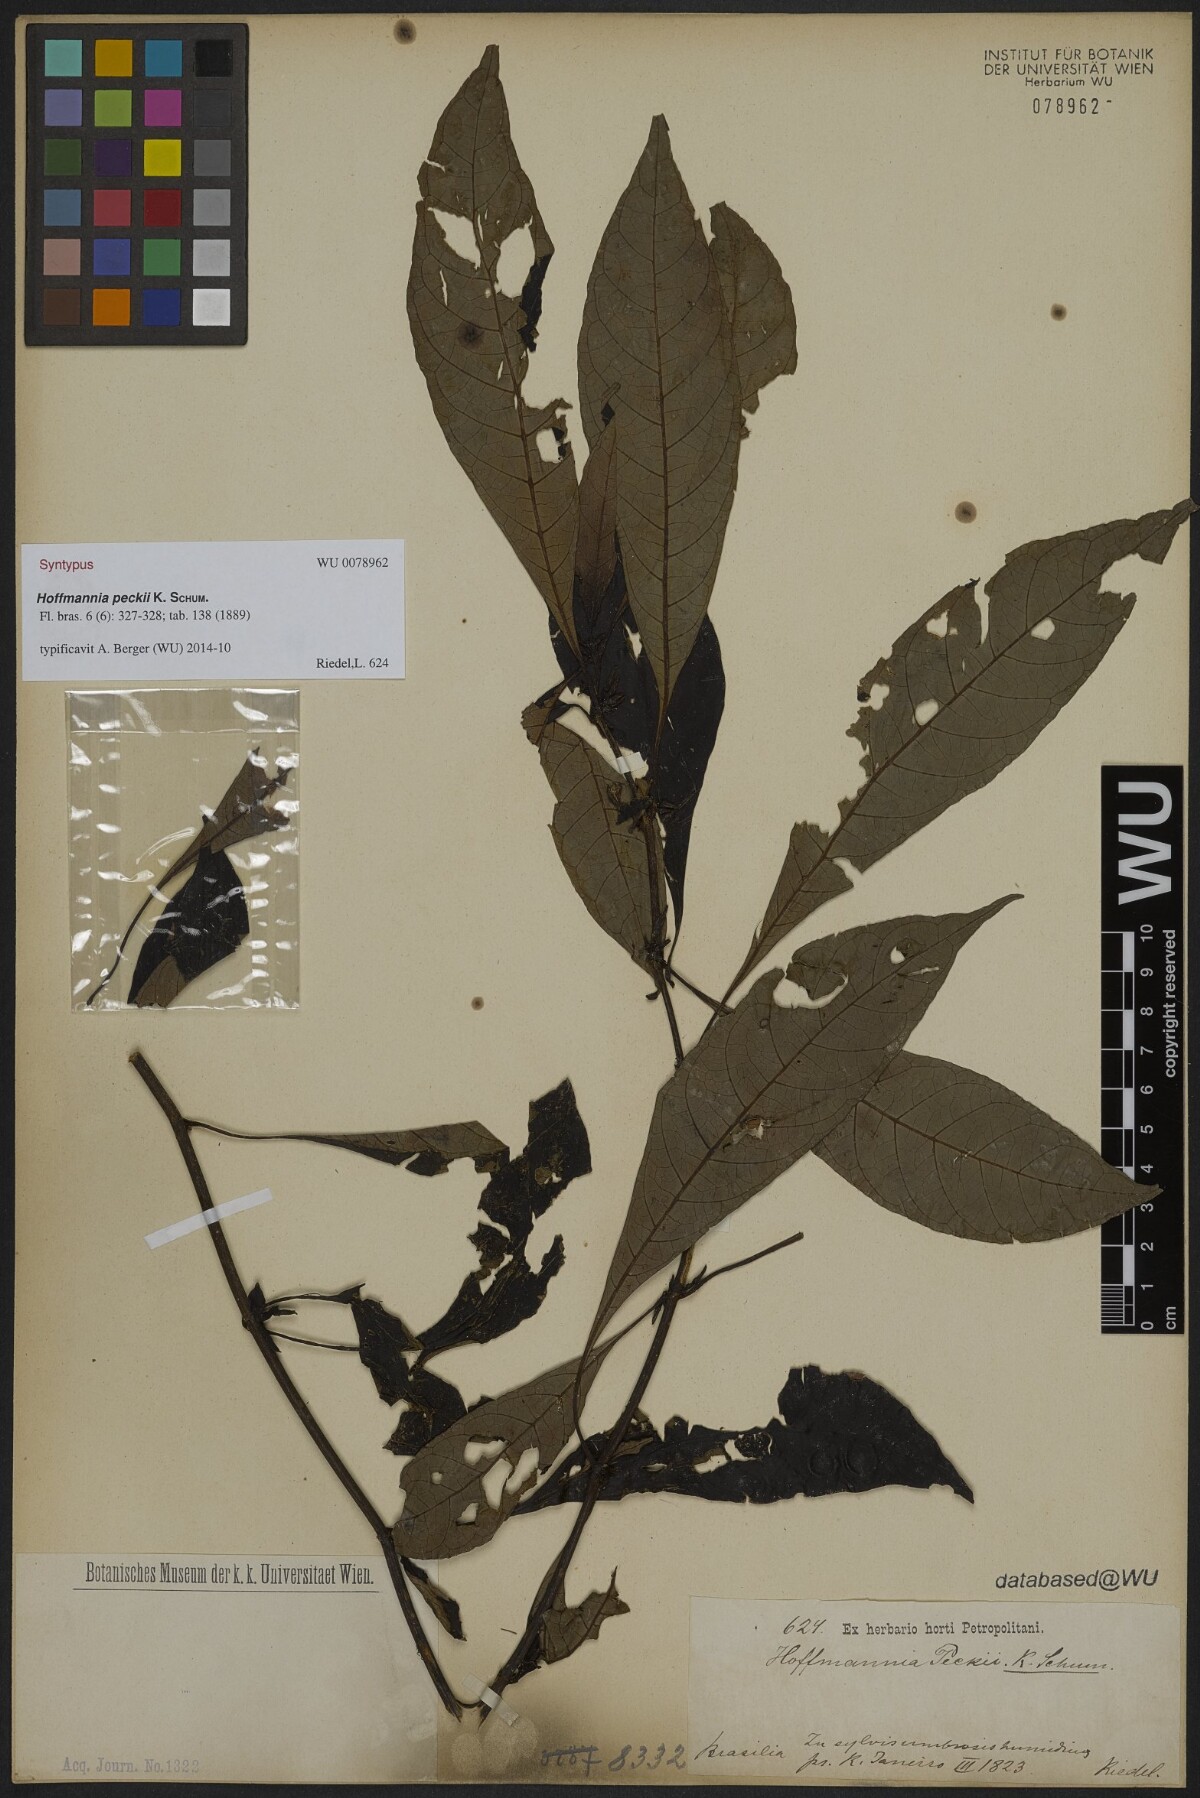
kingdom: Plantae
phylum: Tracheophyta
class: Magnoliopsida
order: Gentianales
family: Rubiaceae
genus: Hoffmannia
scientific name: Hoffmannia peckii
